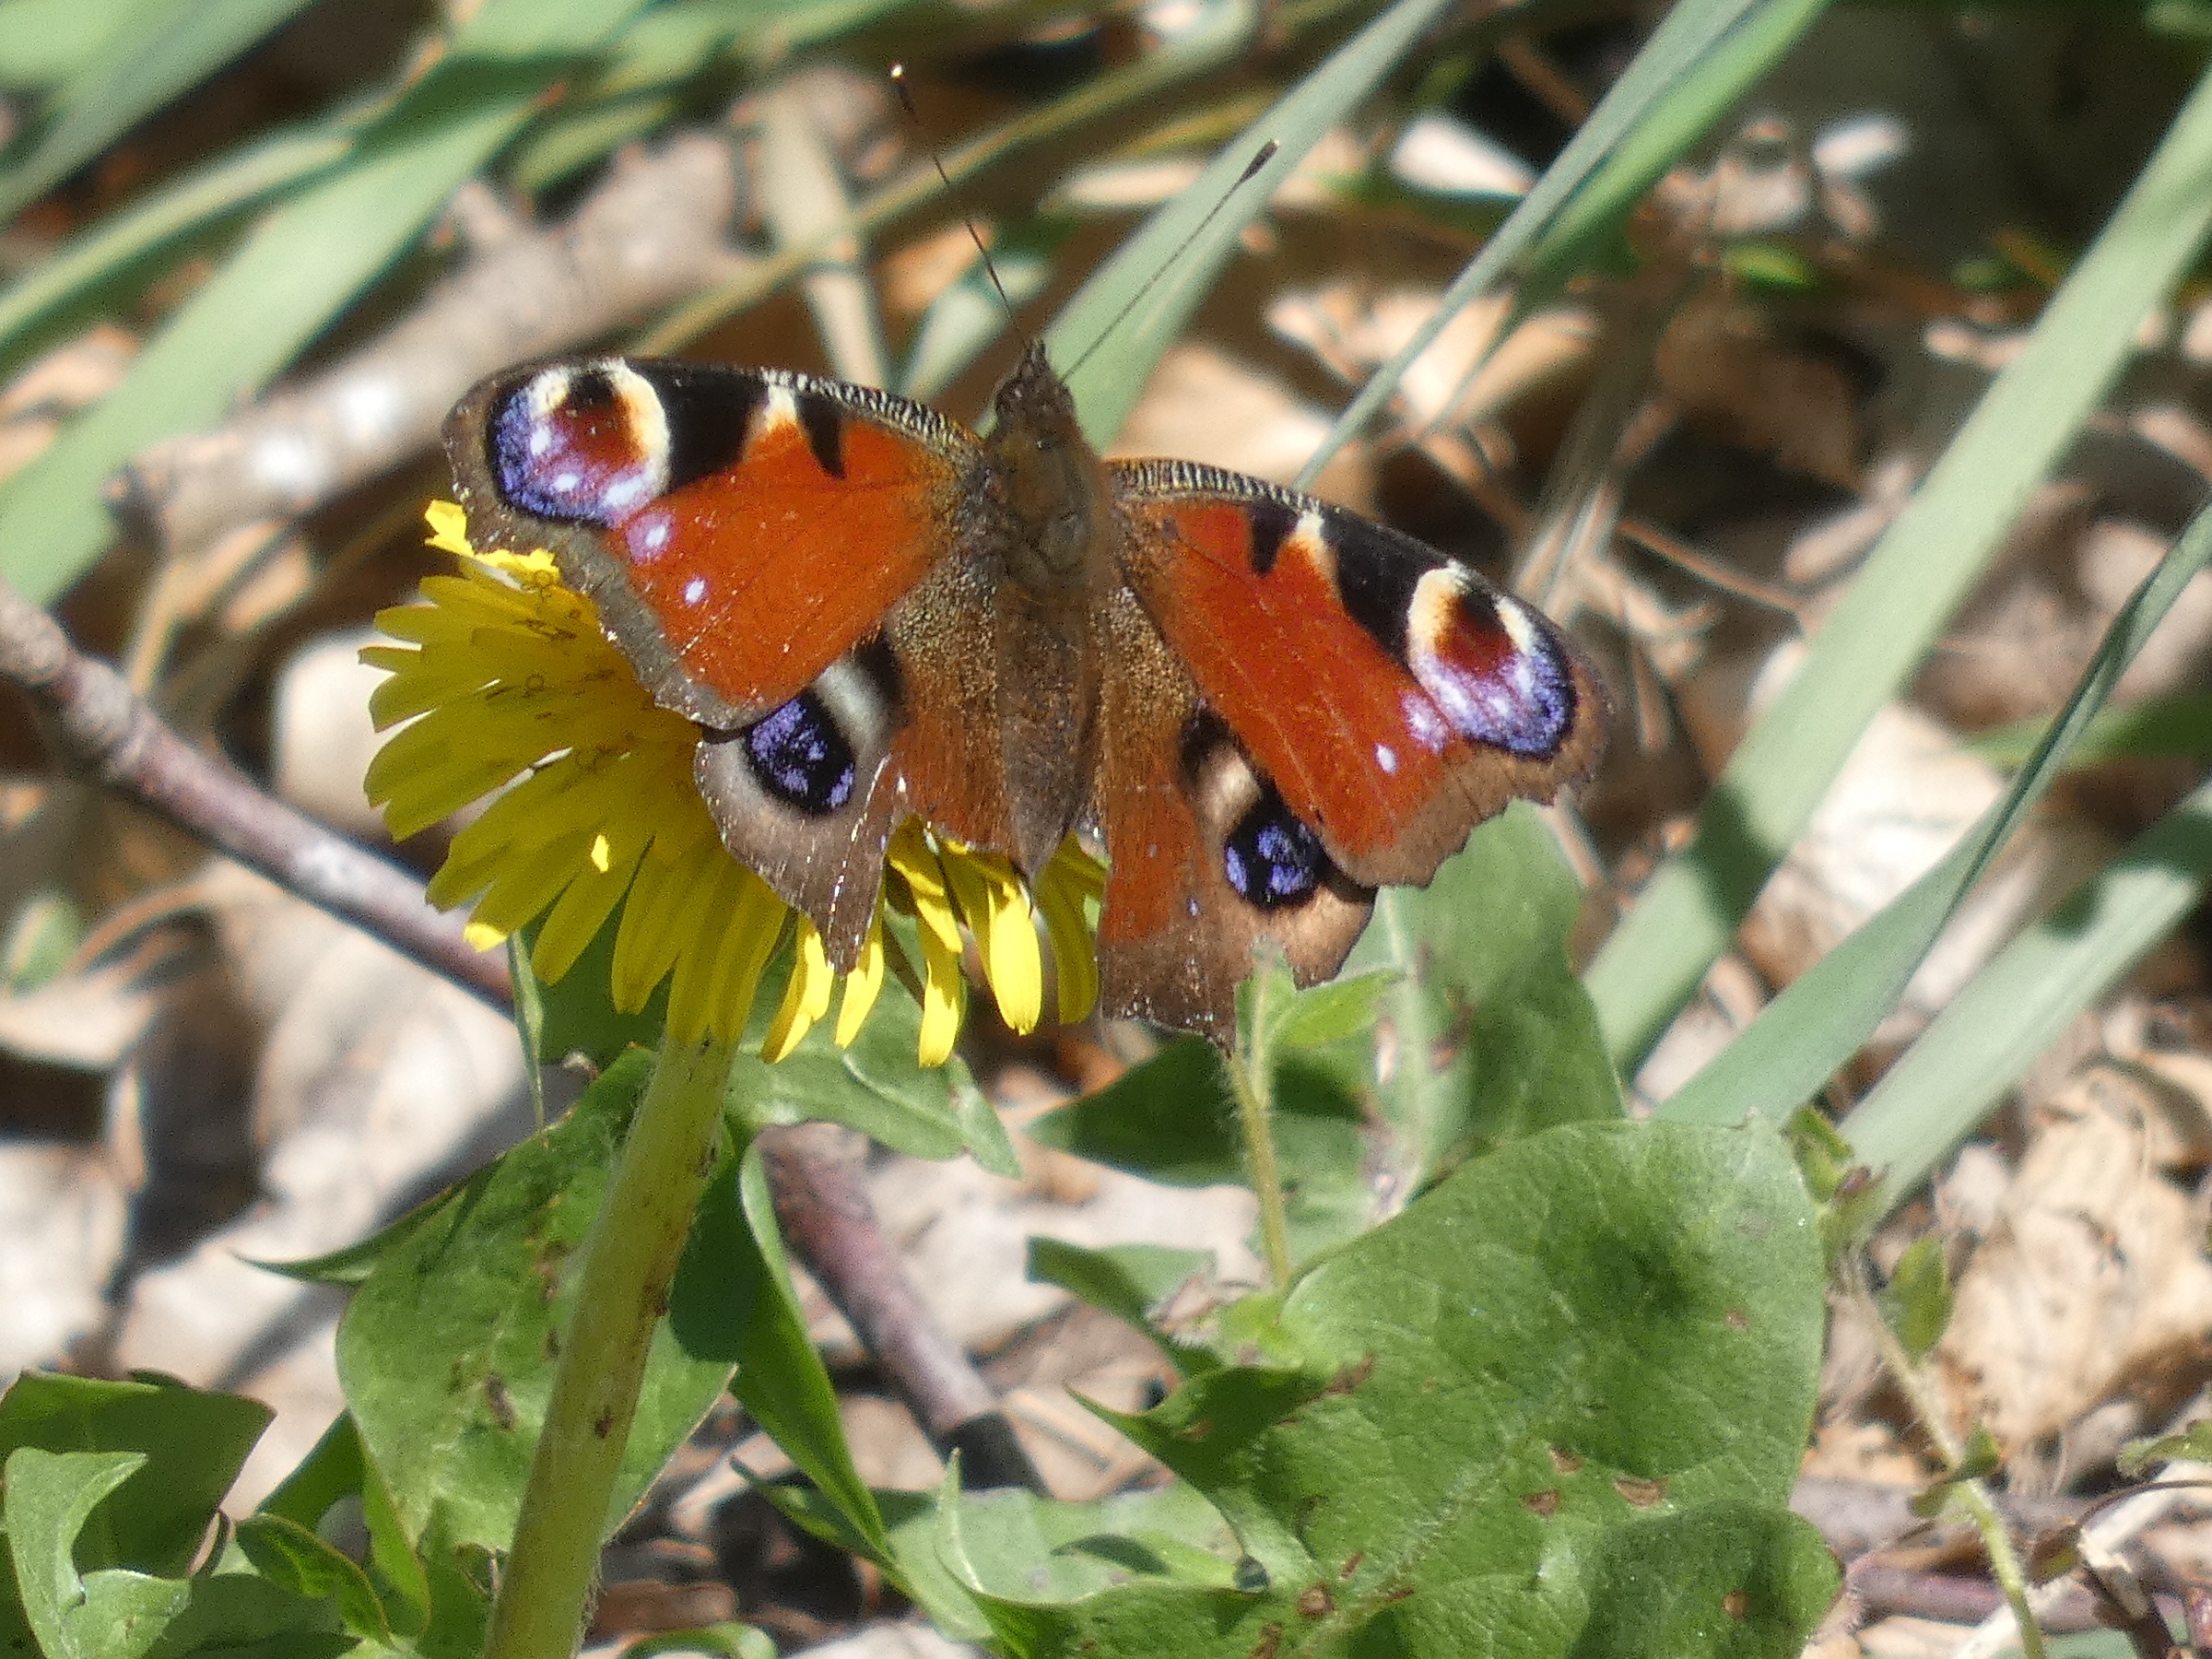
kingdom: Animalia
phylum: Arthropoda
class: Insecta
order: Lepidoptera
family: Nymphalidae
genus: Aglais
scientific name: Aglais io
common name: Dagpåfugleøje
